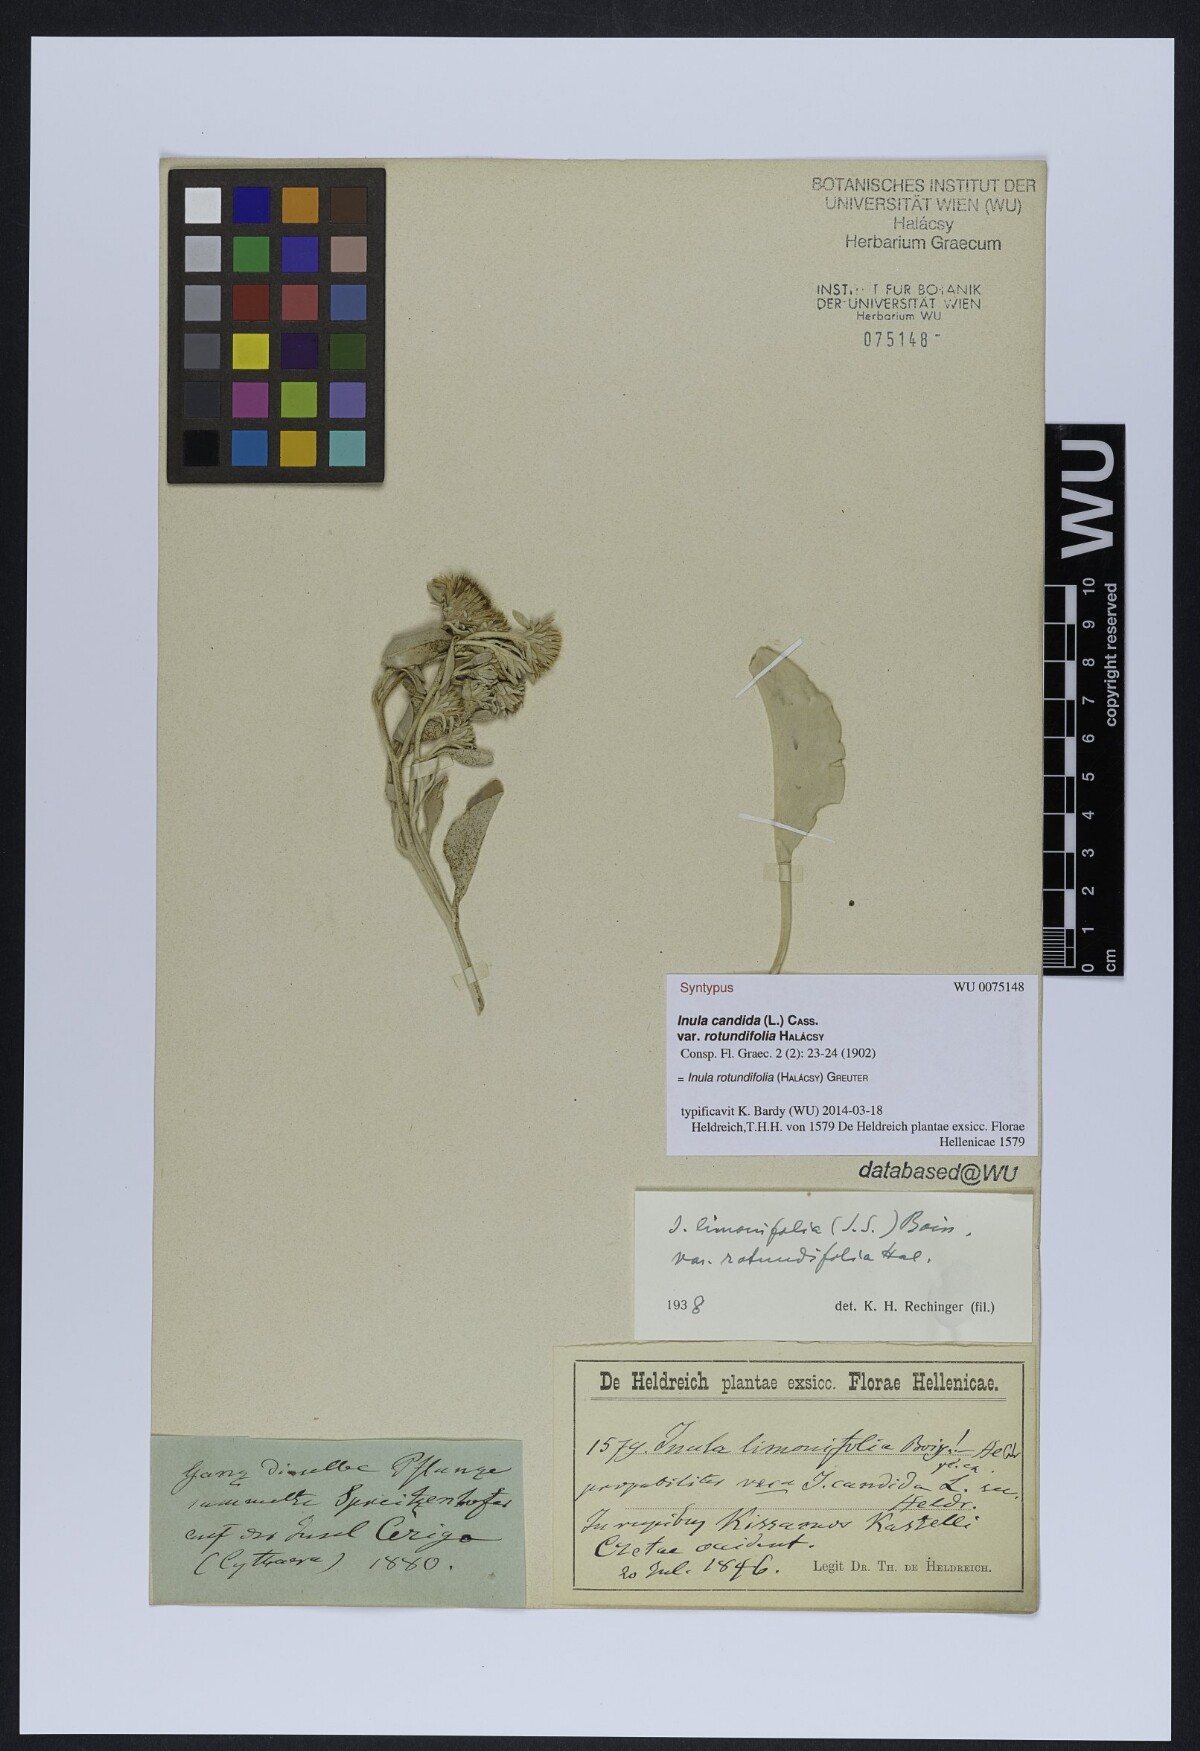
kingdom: Plantae
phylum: Tracheophyta
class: Magnoliopsida
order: Asterales
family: Asteraceae
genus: Inula
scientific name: Inula candida
